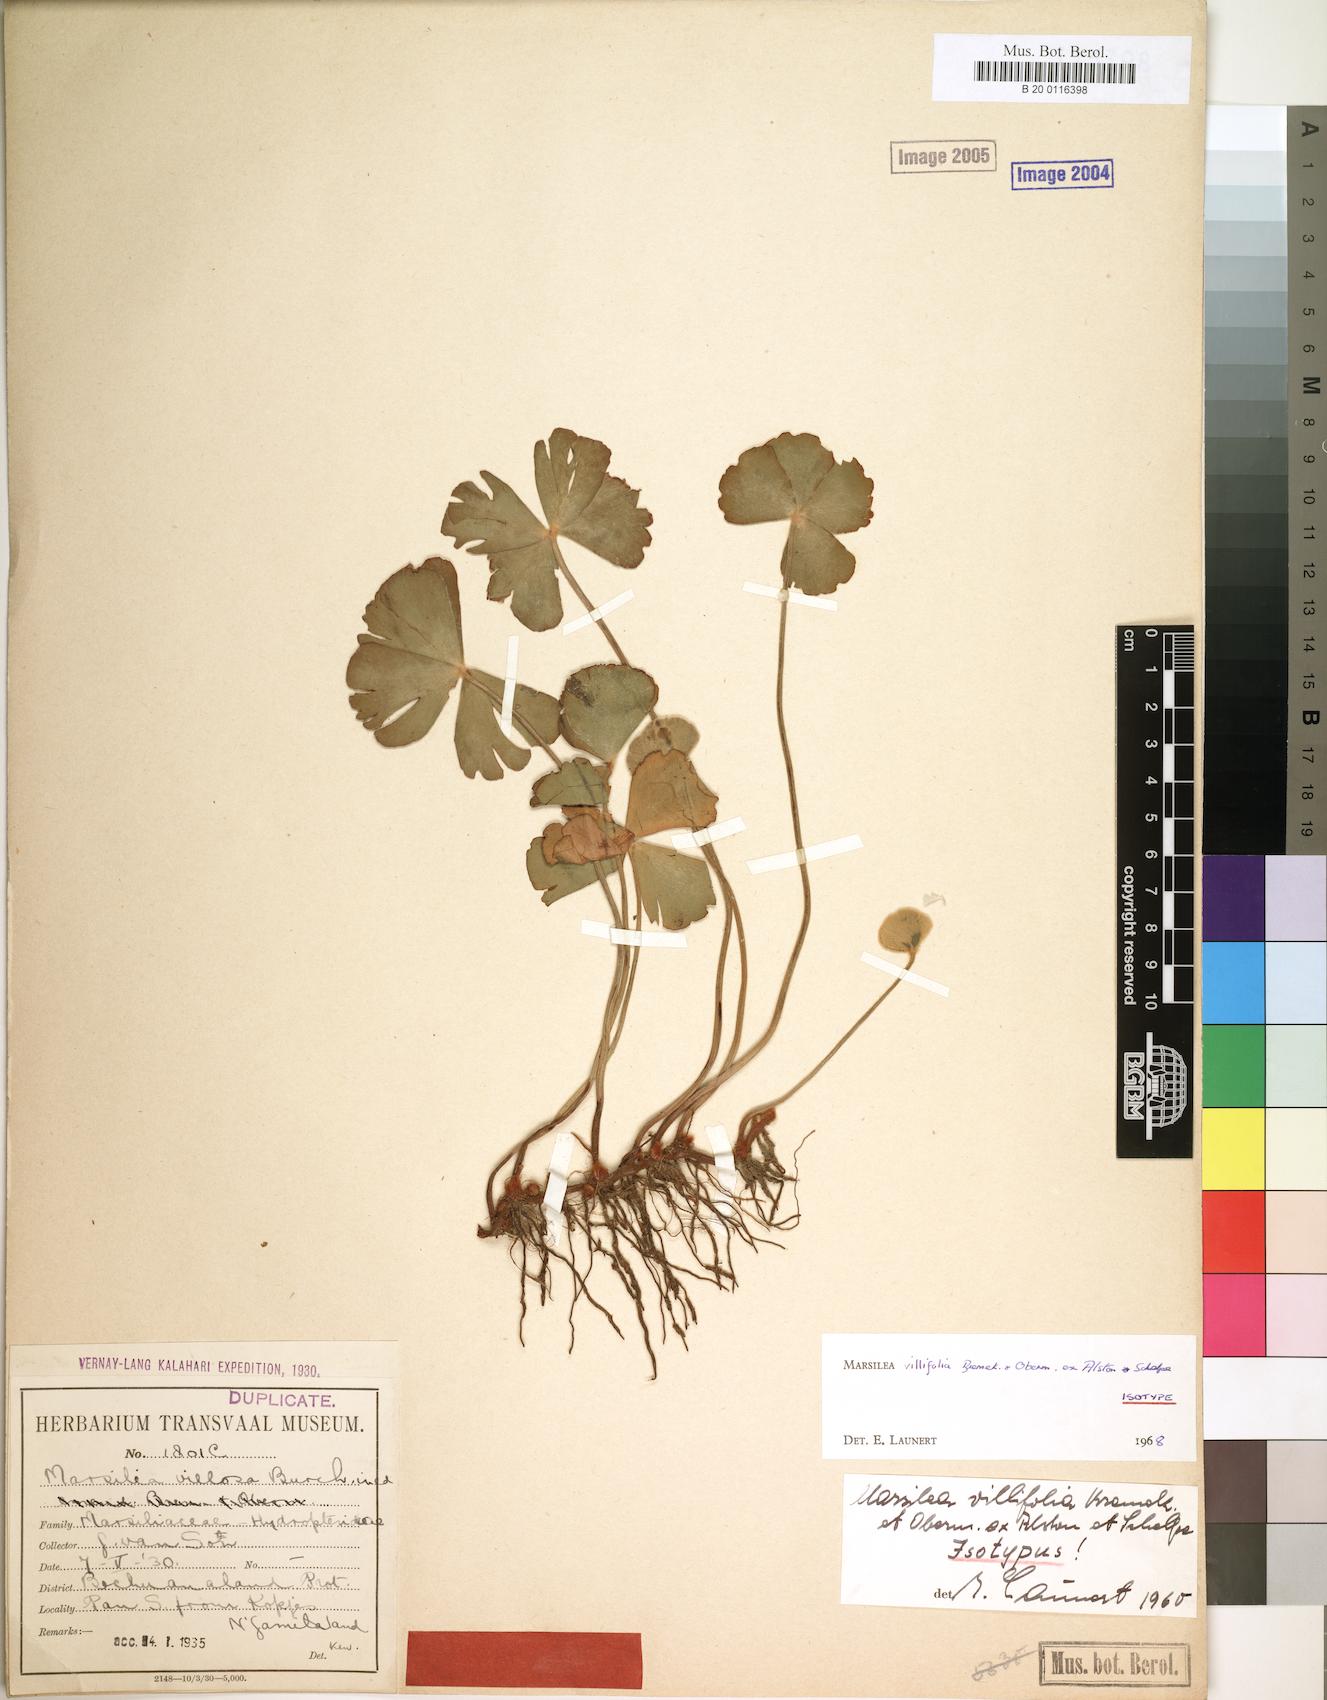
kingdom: Plantae
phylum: Tracheophyta
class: Polypodiopsida
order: Salviniales
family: Marsileaceae
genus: Marsilea
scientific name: Marsilea villifolia
